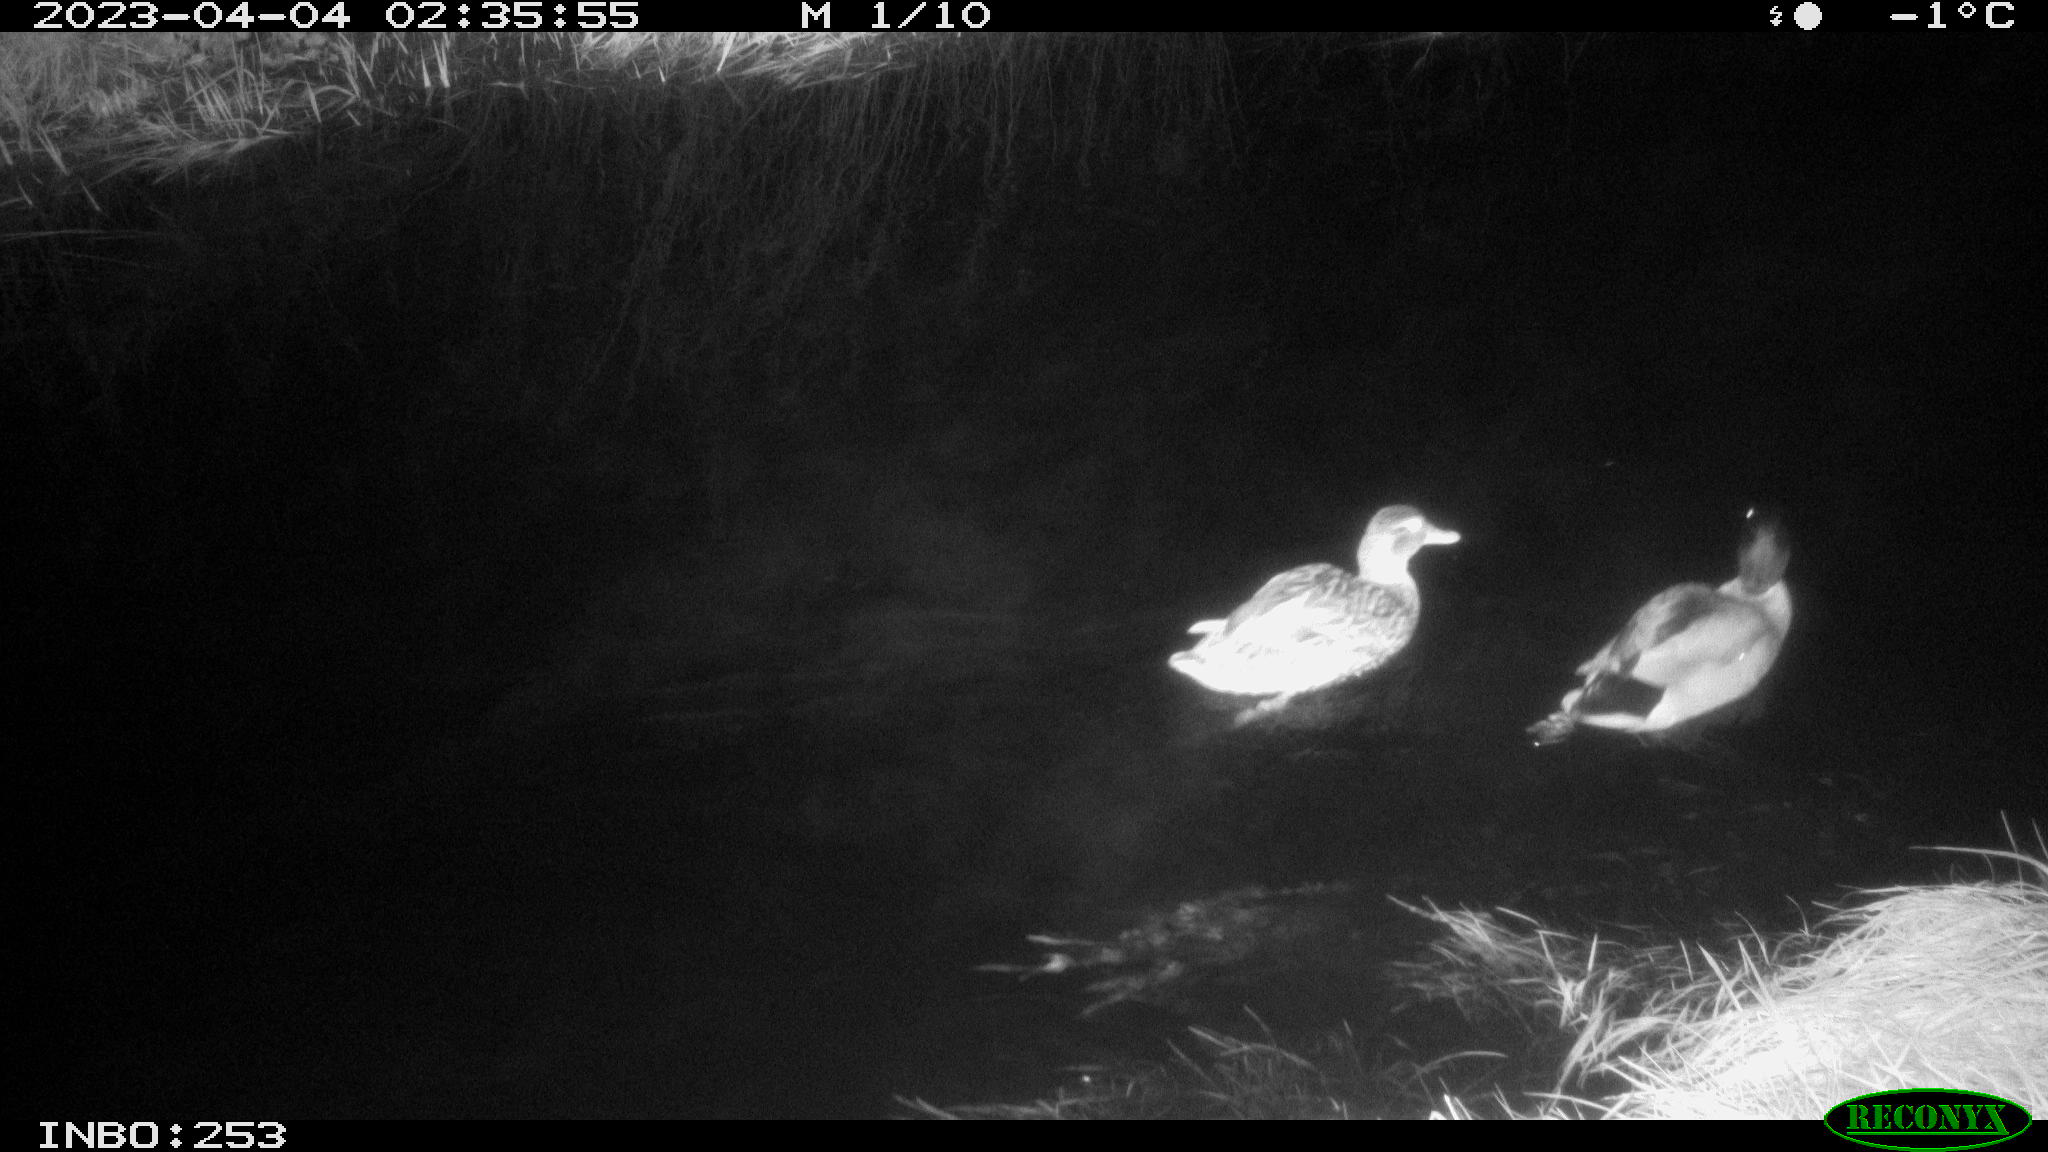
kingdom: Animalia
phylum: Chordata
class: Aves
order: Anseriformes
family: Anatidae
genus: Anas
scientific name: Anas
